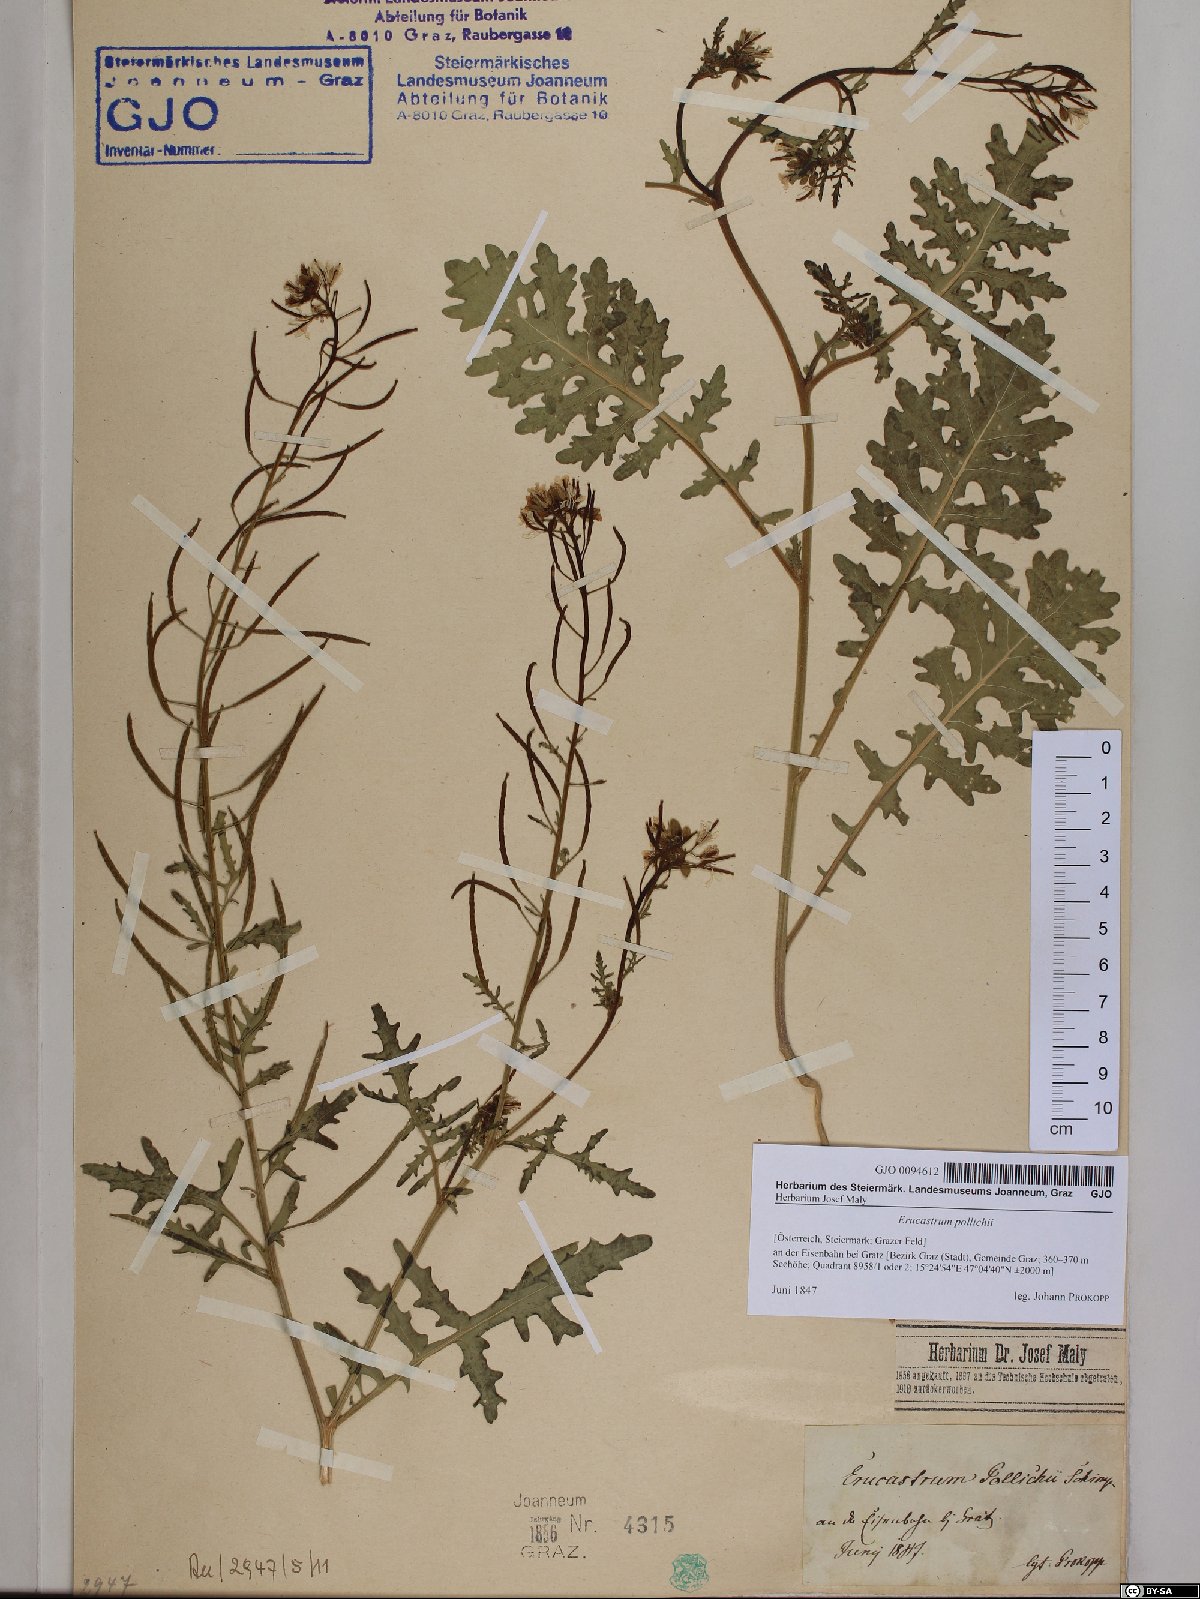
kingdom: Plantae
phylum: Tracheophyta
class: Magnoliopsida
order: Brassicales
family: Brassicaceae
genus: Erucastrum
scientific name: Erucastrum gallicum
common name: Hairy rocket
